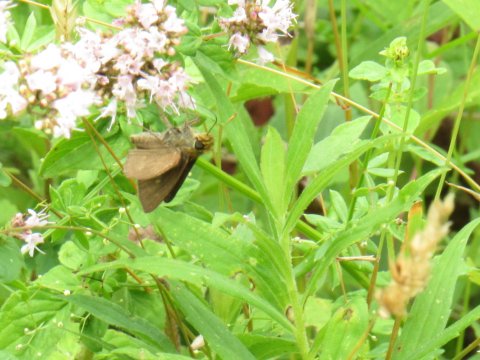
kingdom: Animalia
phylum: Arthropoda
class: Insecta
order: Lepidoptera
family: Hesperiidae
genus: Polites
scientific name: Polites egeremet
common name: Northern Broken-Dash
